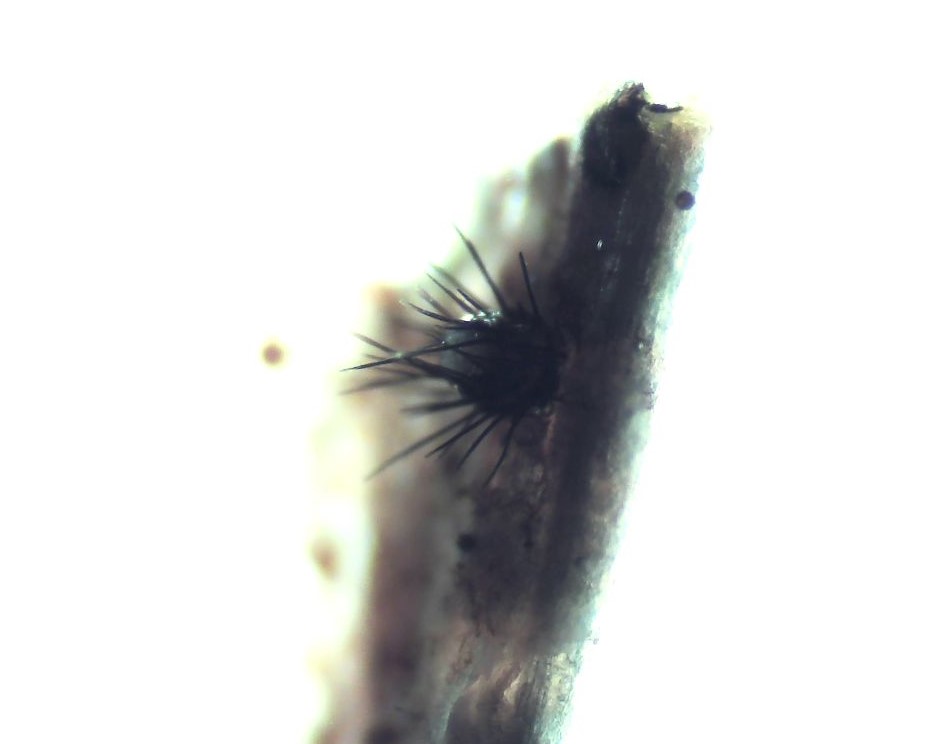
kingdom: Fungi
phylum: Ascomycota
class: Sordariomycetes
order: Chaetosphaeriales
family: Chaetosphaeriaceae
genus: Pseudolachnea
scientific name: Pseudolachnea hispidula
